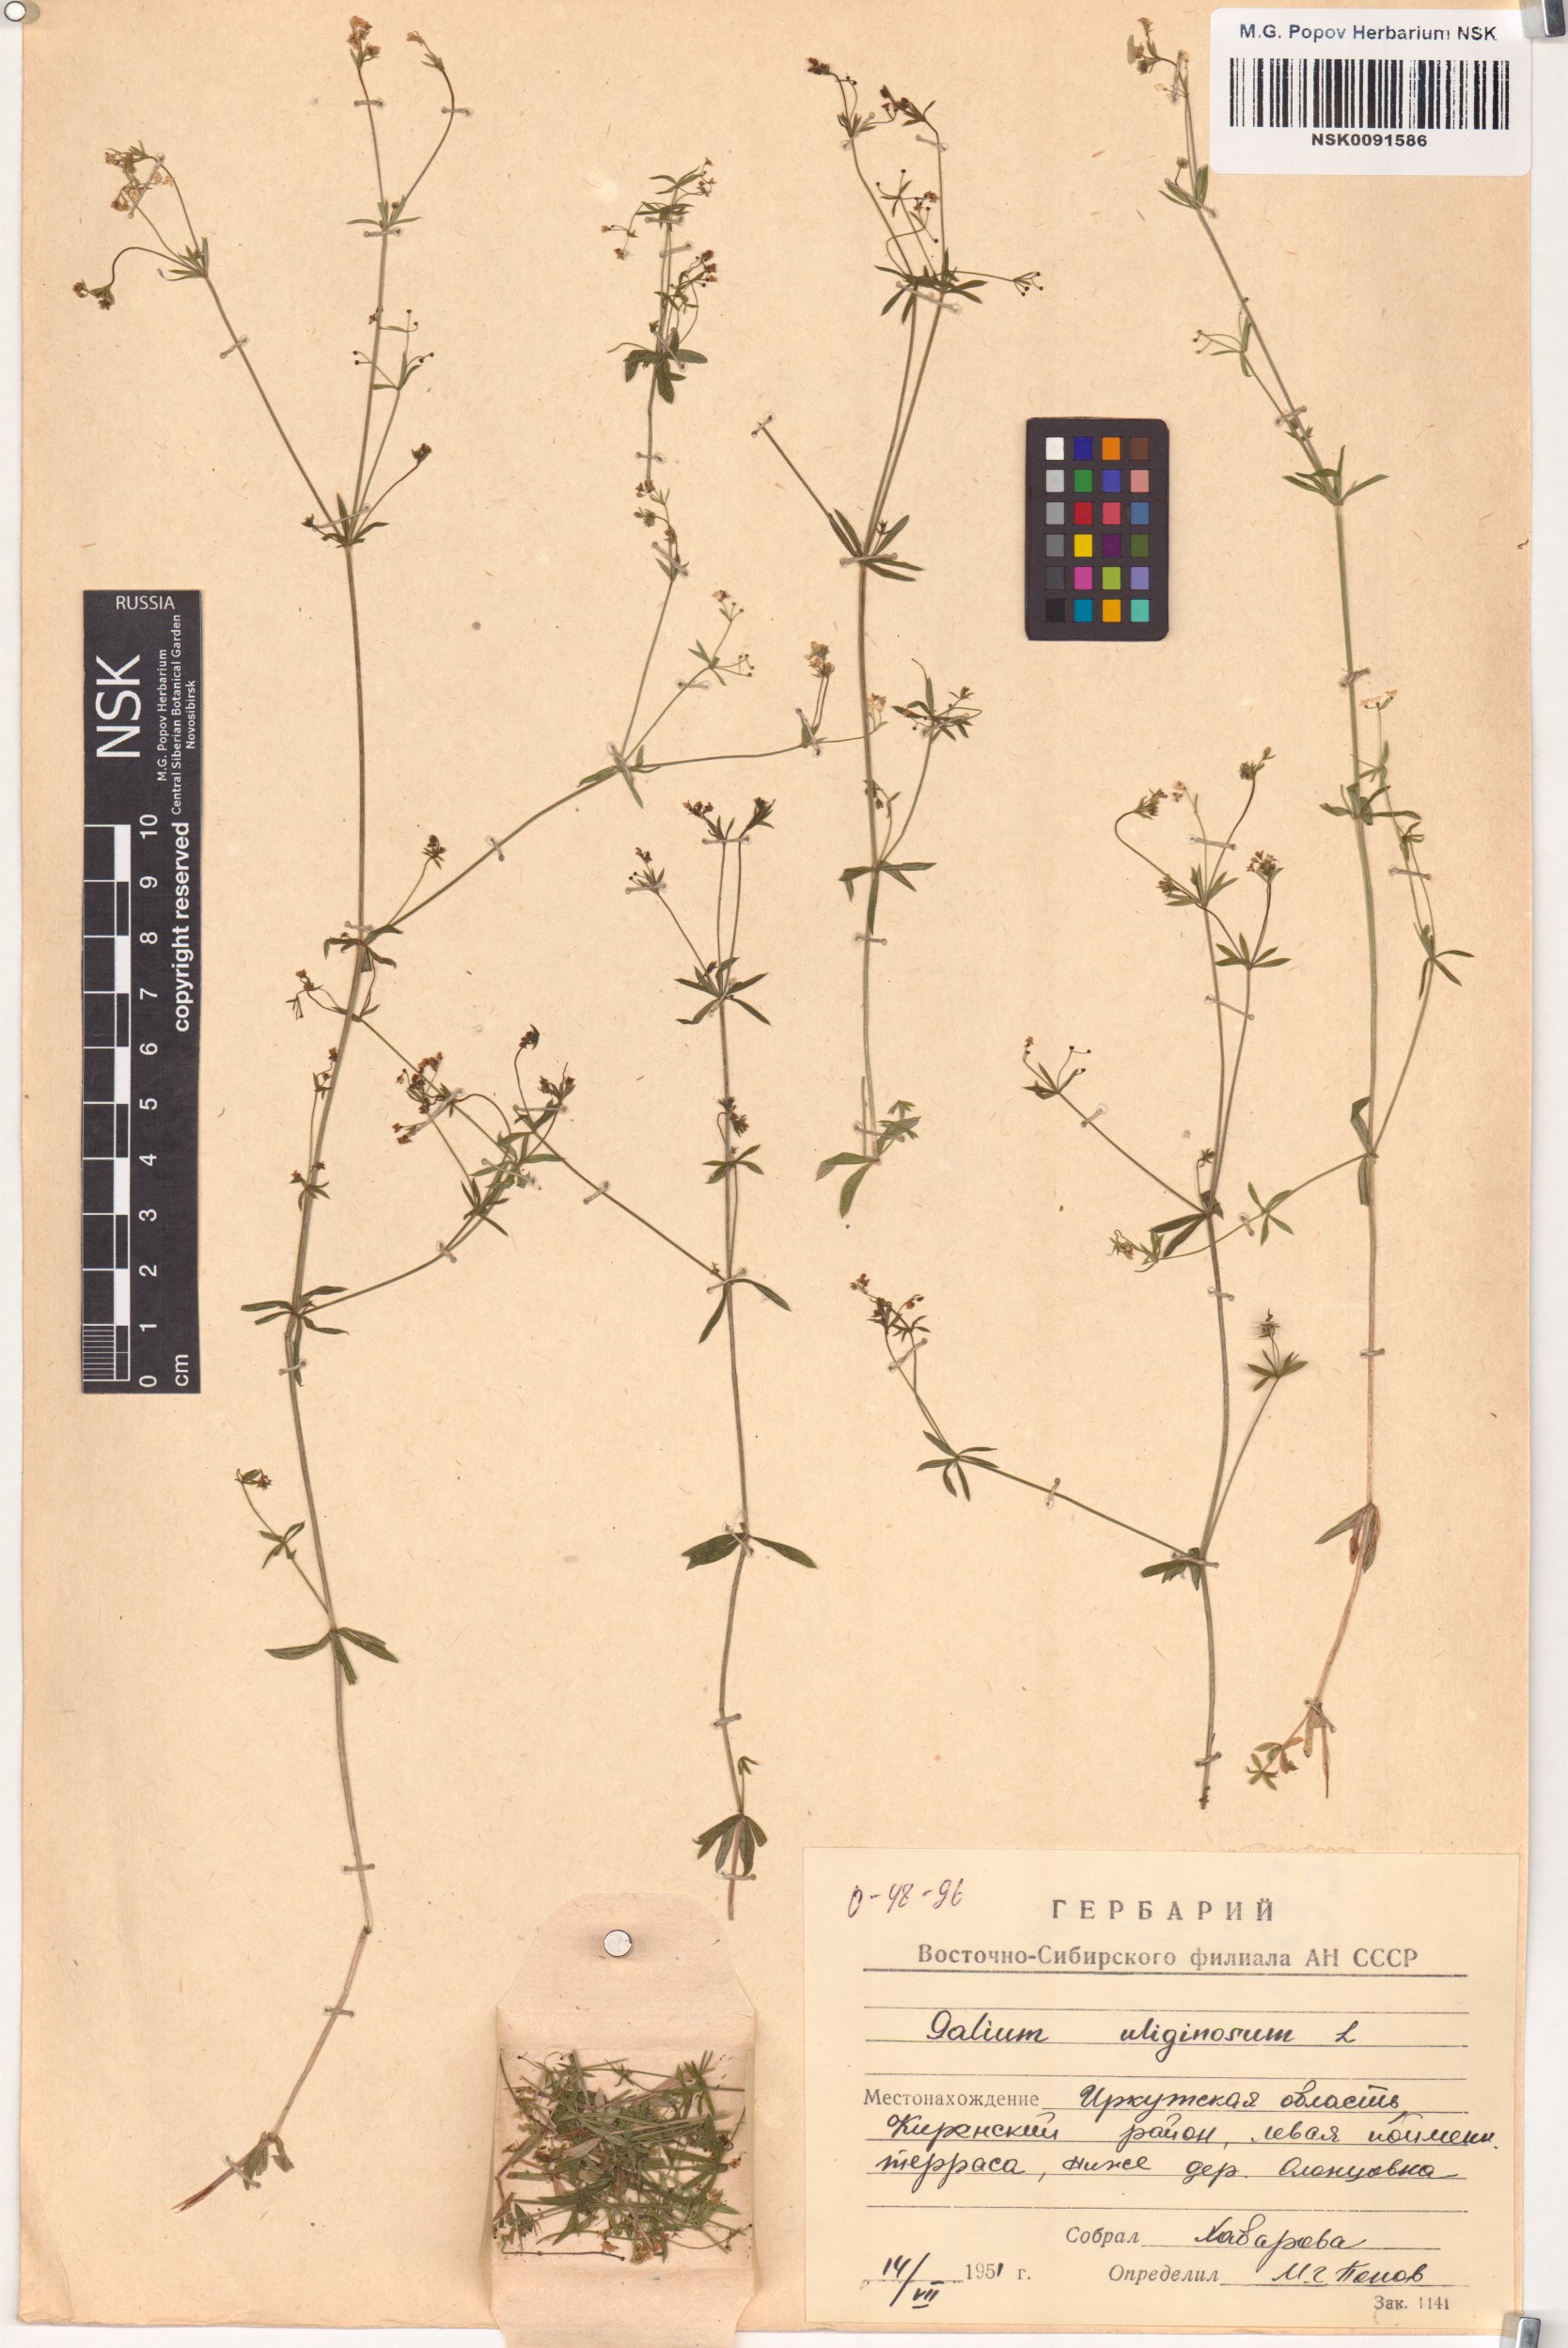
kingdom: Plantae
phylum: Tracheophyta
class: Magnoliopsida
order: Gentianales
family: Rubiaceae
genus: Galium
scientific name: Galium uliginosum
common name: Fen bedstraw
